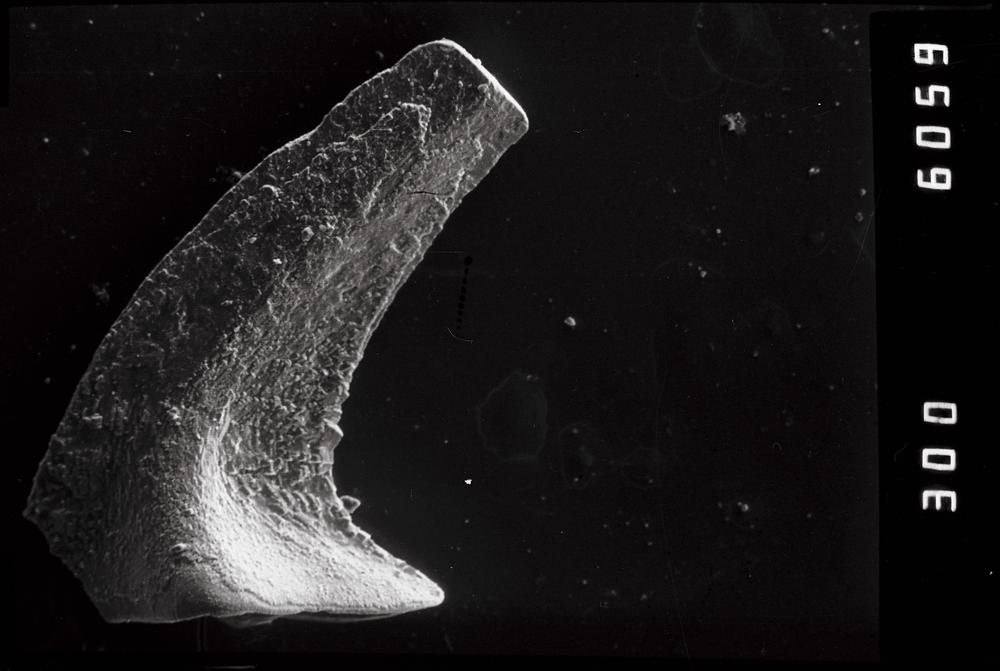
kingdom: Animalia
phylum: Chordata
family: Acodontidae
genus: Acodus
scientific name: Acodus deltatus
